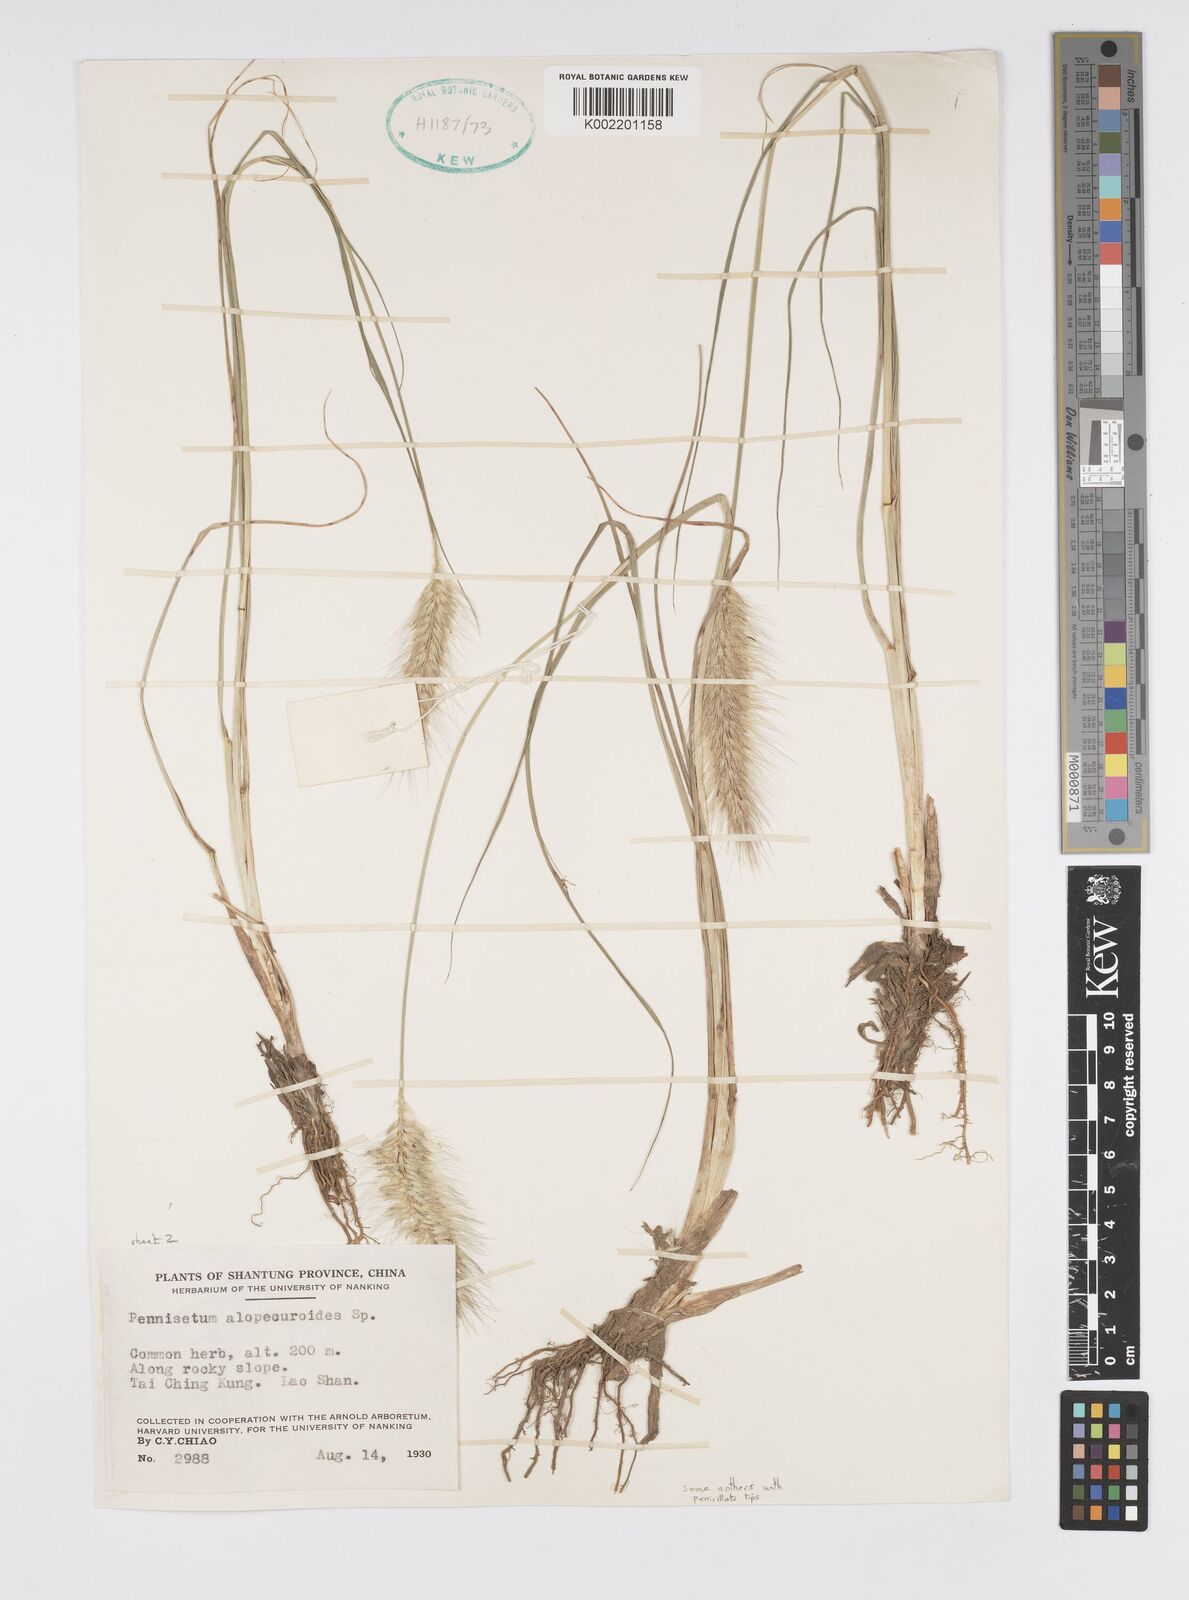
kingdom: Plantae
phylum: Tracheophyta
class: Liliopsida
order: Poales
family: Poaceae
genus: Cenchrus
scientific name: Cenchrus alopecuroides
